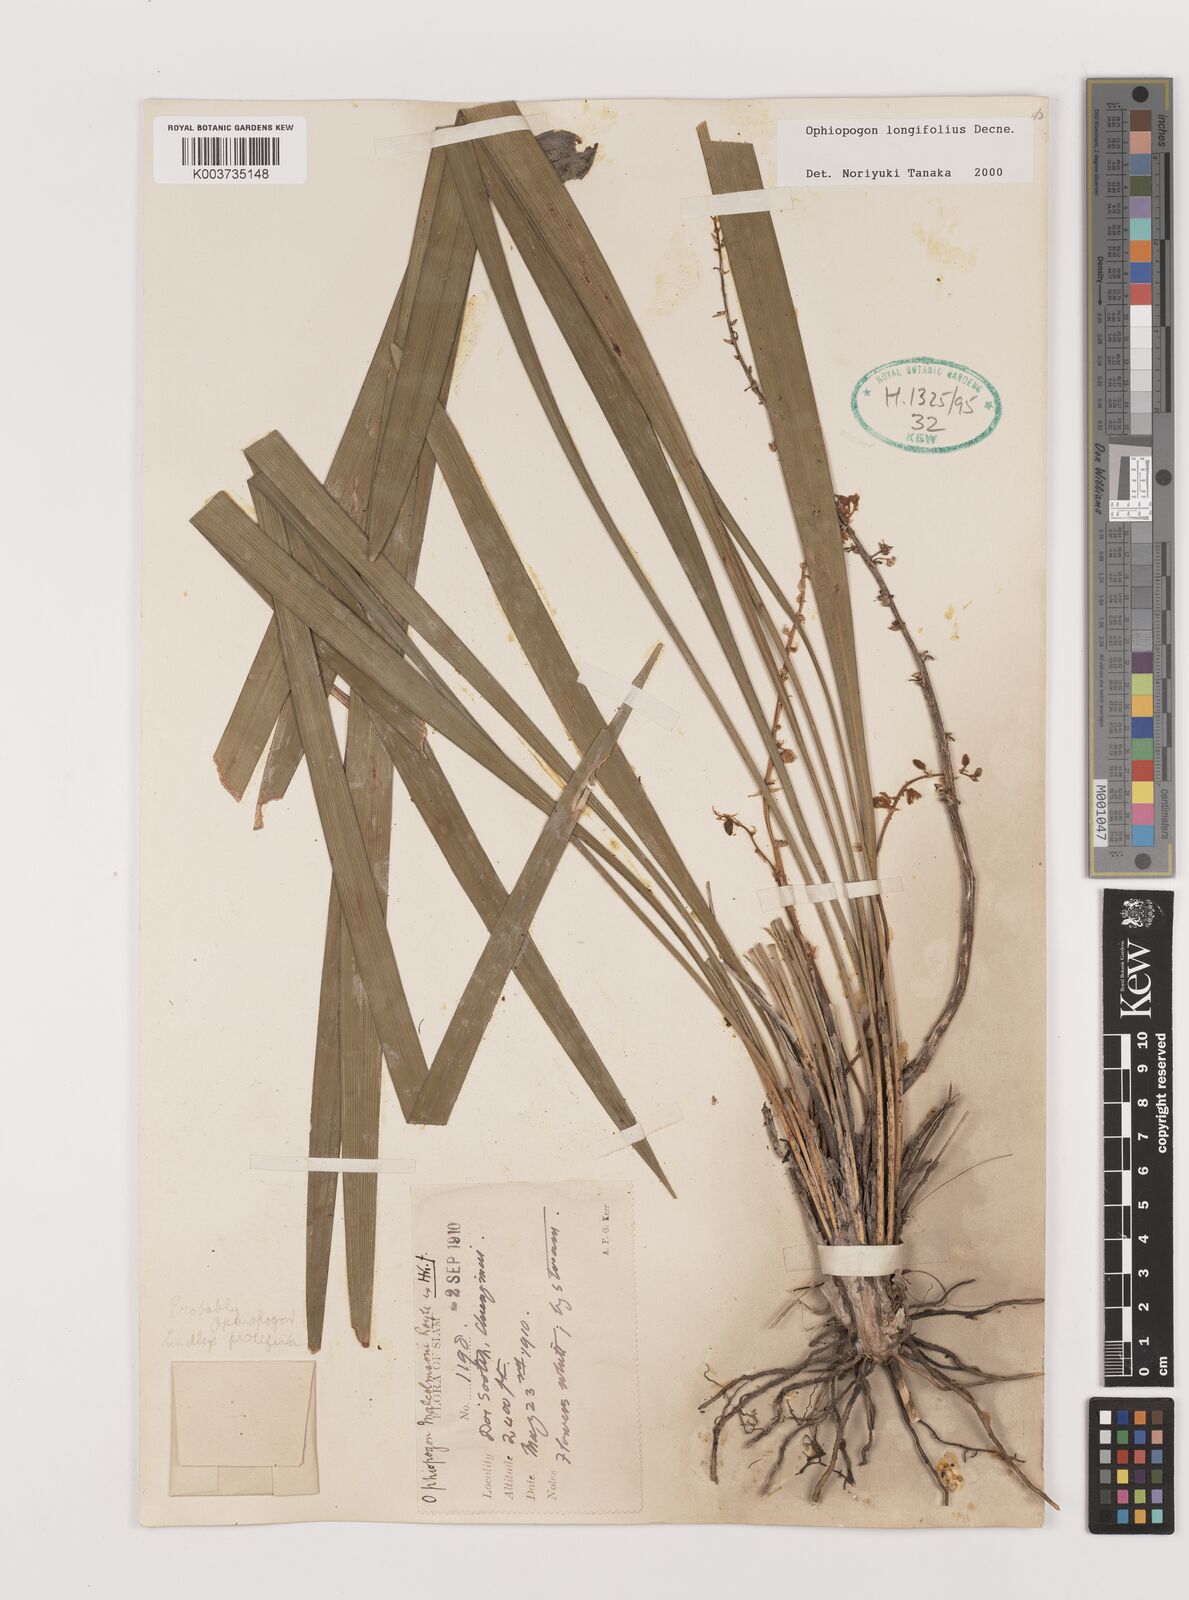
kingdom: Plantae
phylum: Tracheophyta
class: Liliopsida
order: Asparagales
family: Asparagaceae
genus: Ophiopogon
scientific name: Ophiopogon longifolius
